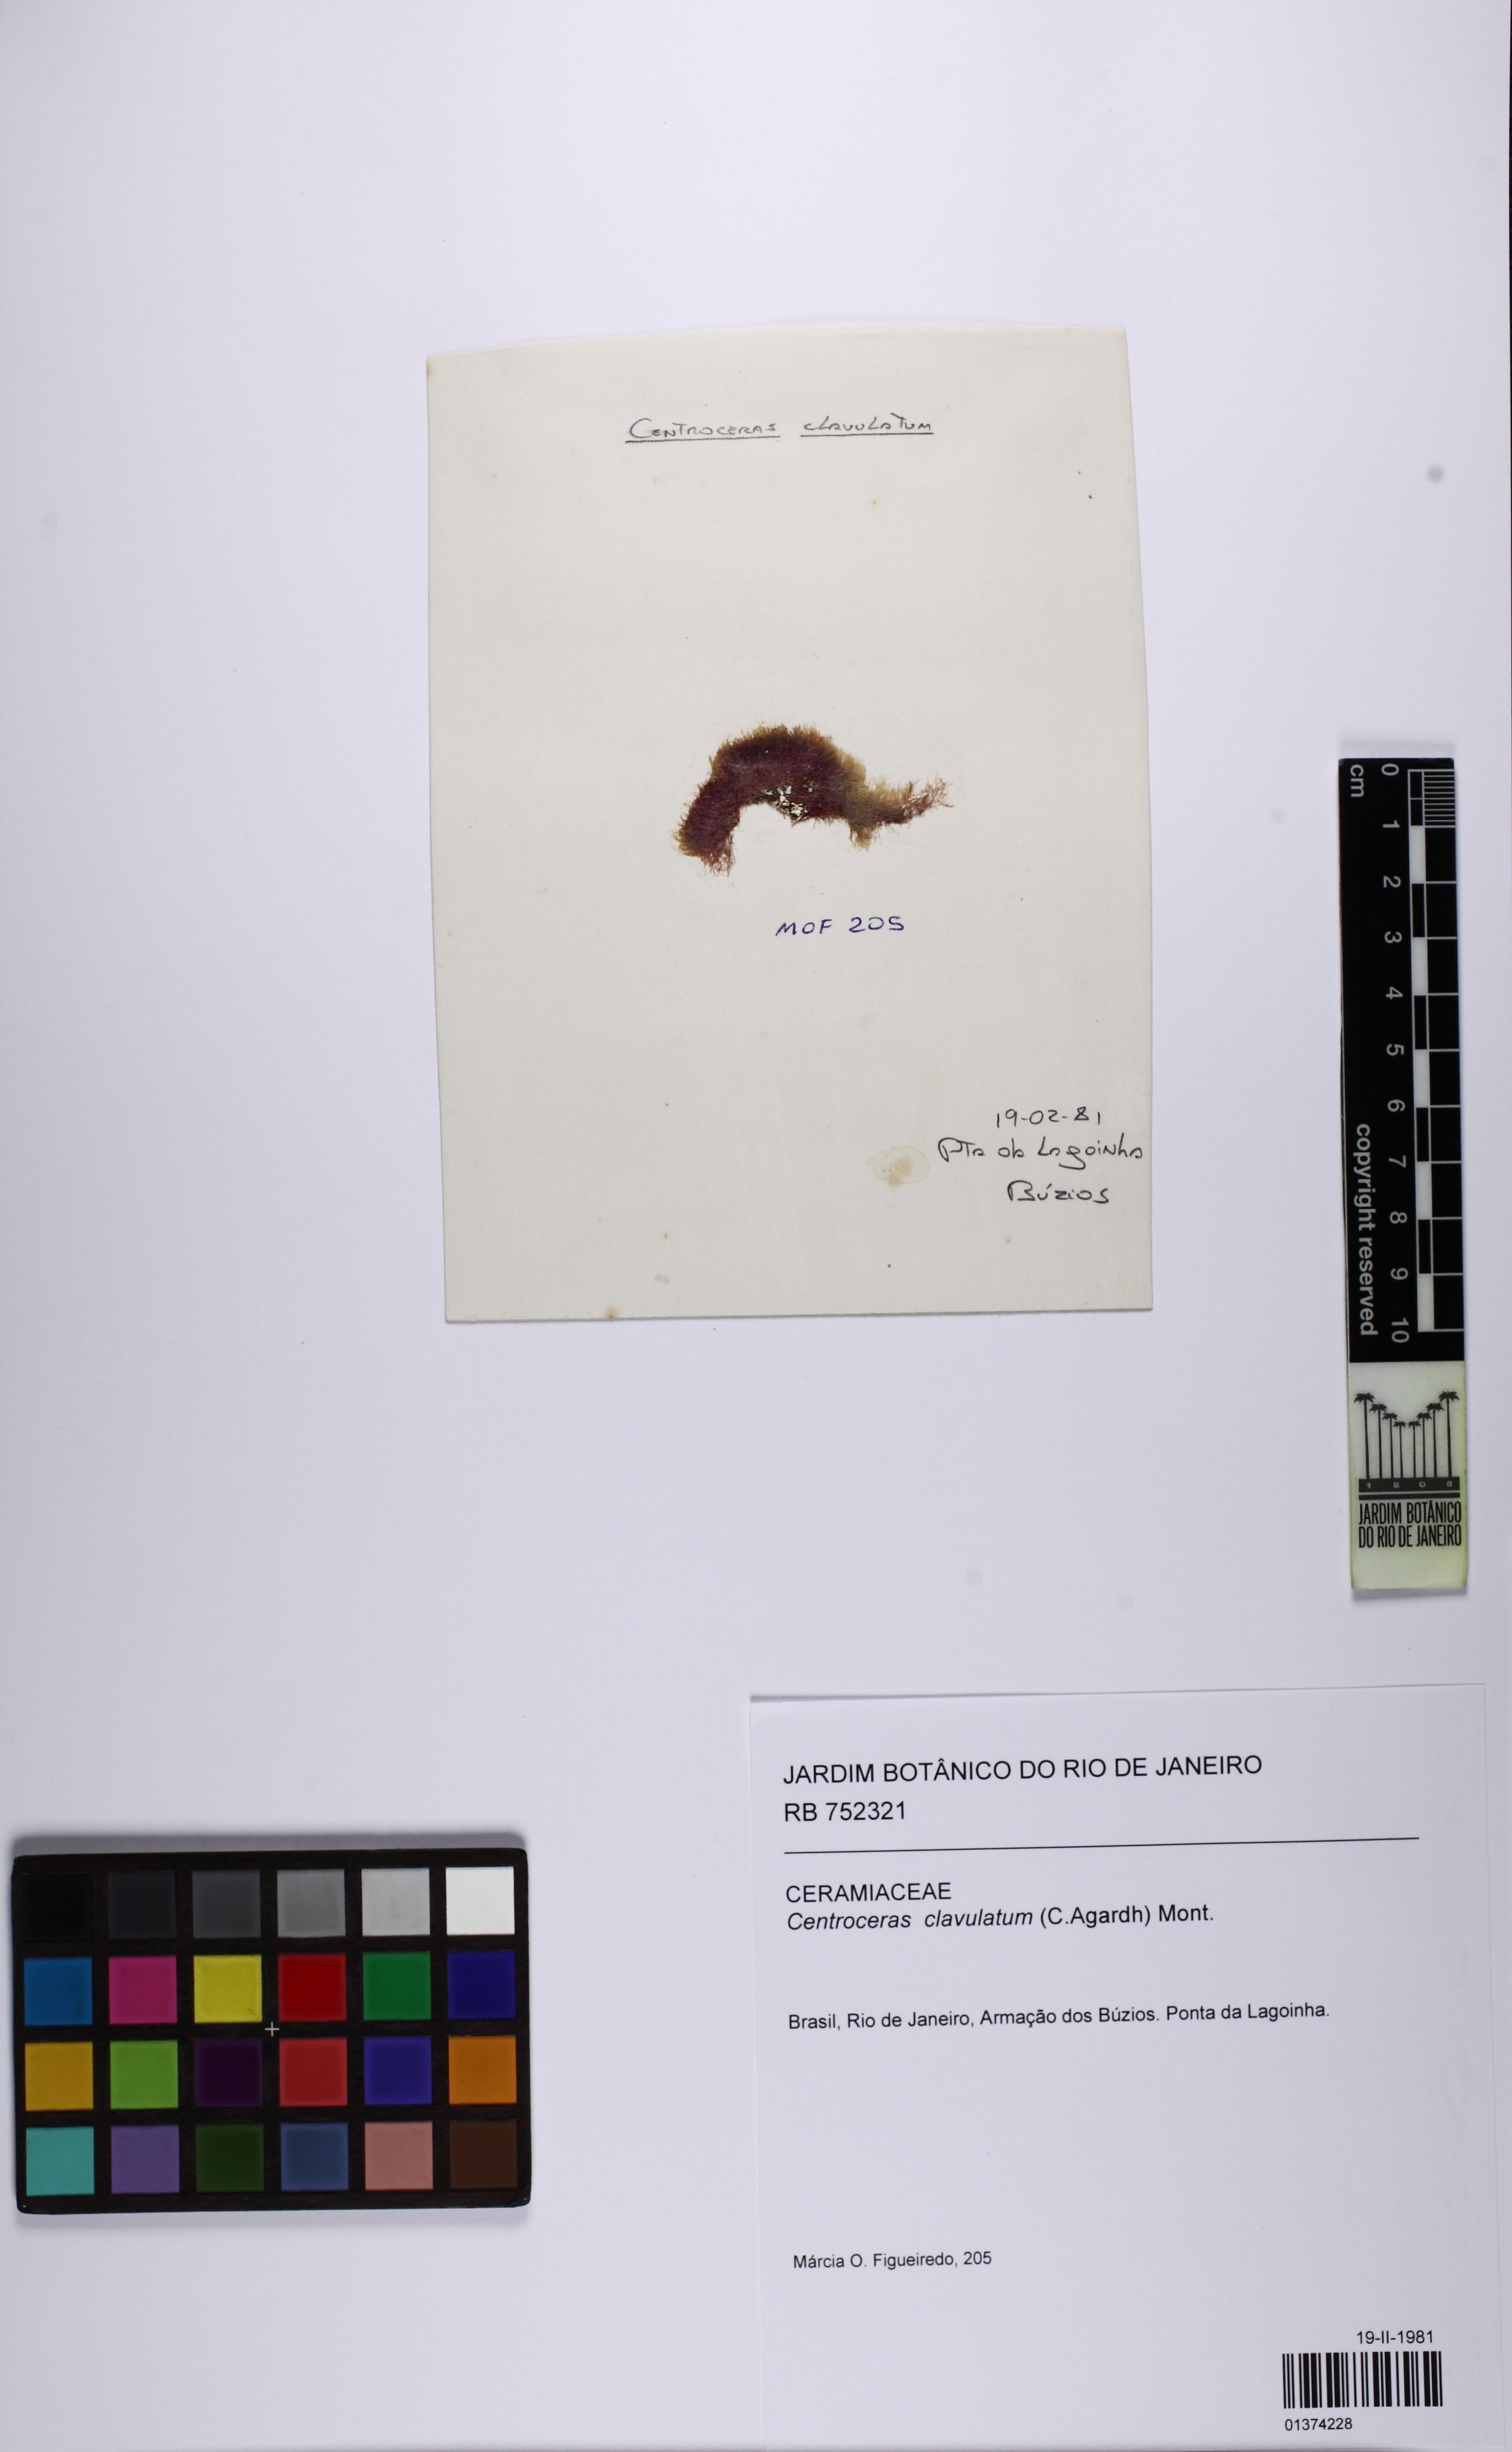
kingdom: Plantae
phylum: Rhodophyta
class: Florideophyceae
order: Ceramiales
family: Ceramiaceae
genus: Centroceras
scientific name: Centroceras clavulatum
